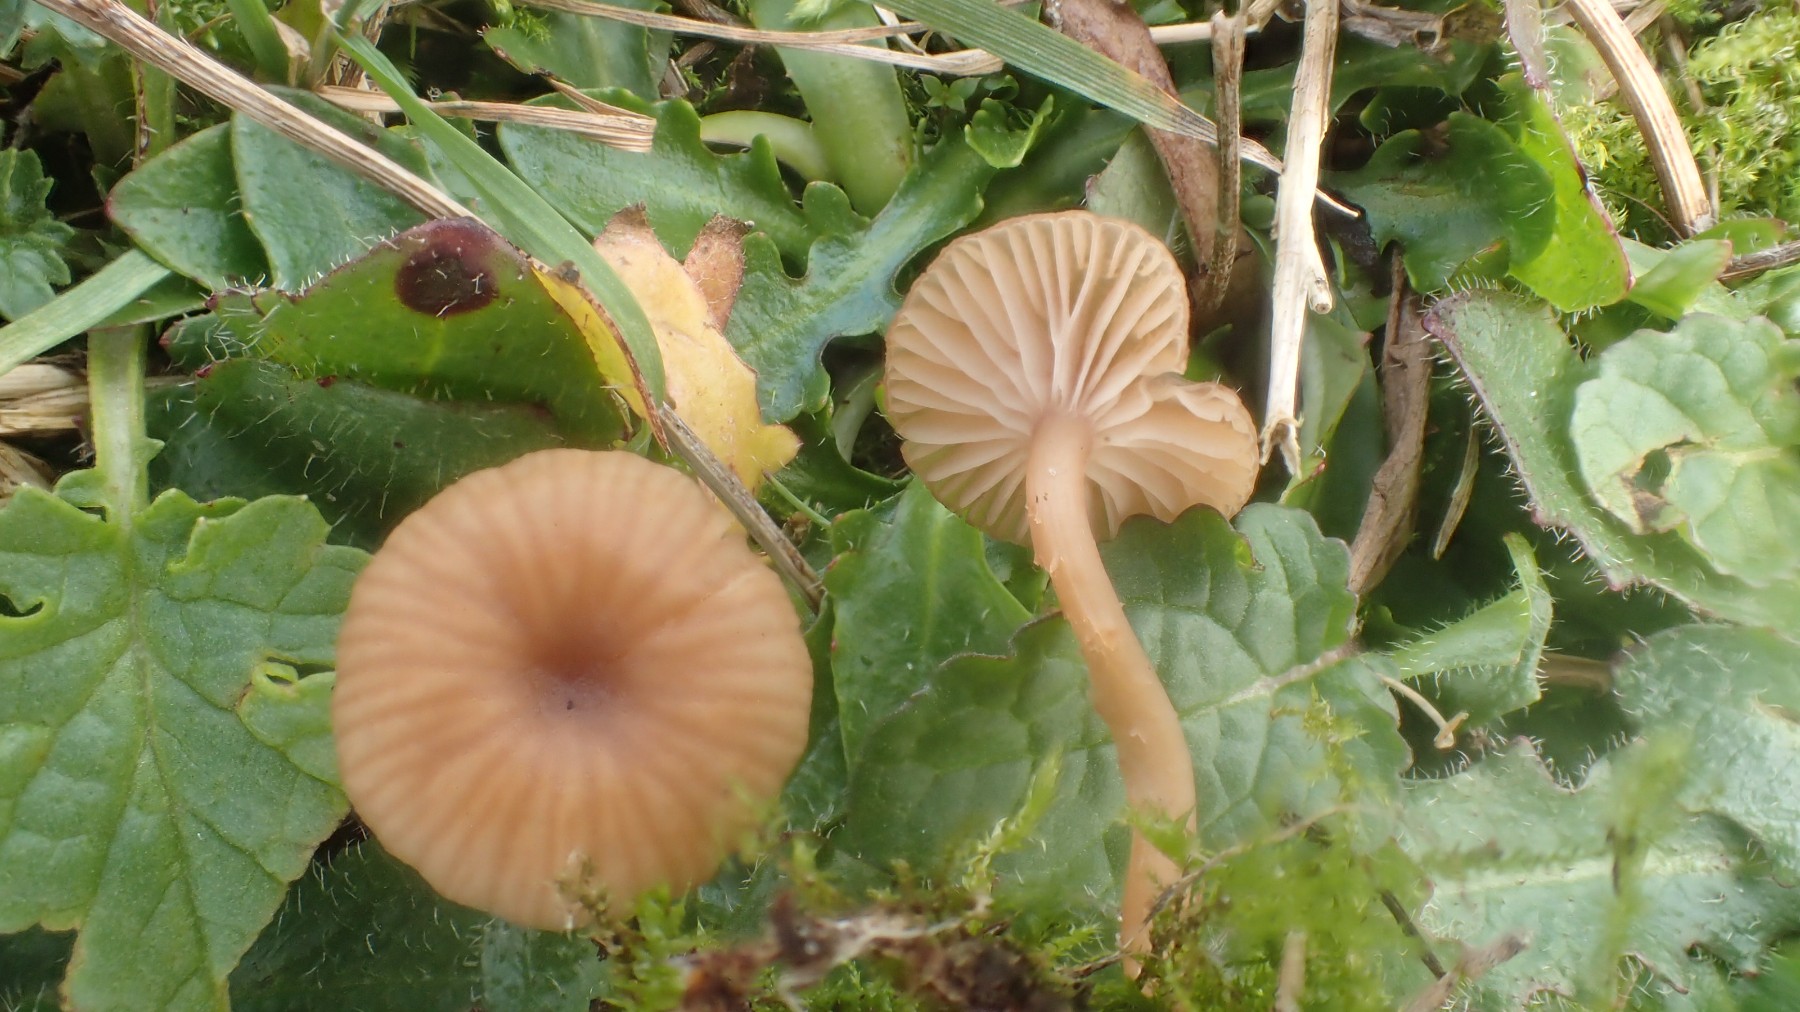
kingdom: Fungi
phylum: Basidiomycota
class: Agaricomycetes
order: Agaricales
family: Tricholomataceae
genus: Omphalina
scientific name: Omphalina pyxidata
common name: rødbrun navlehat
